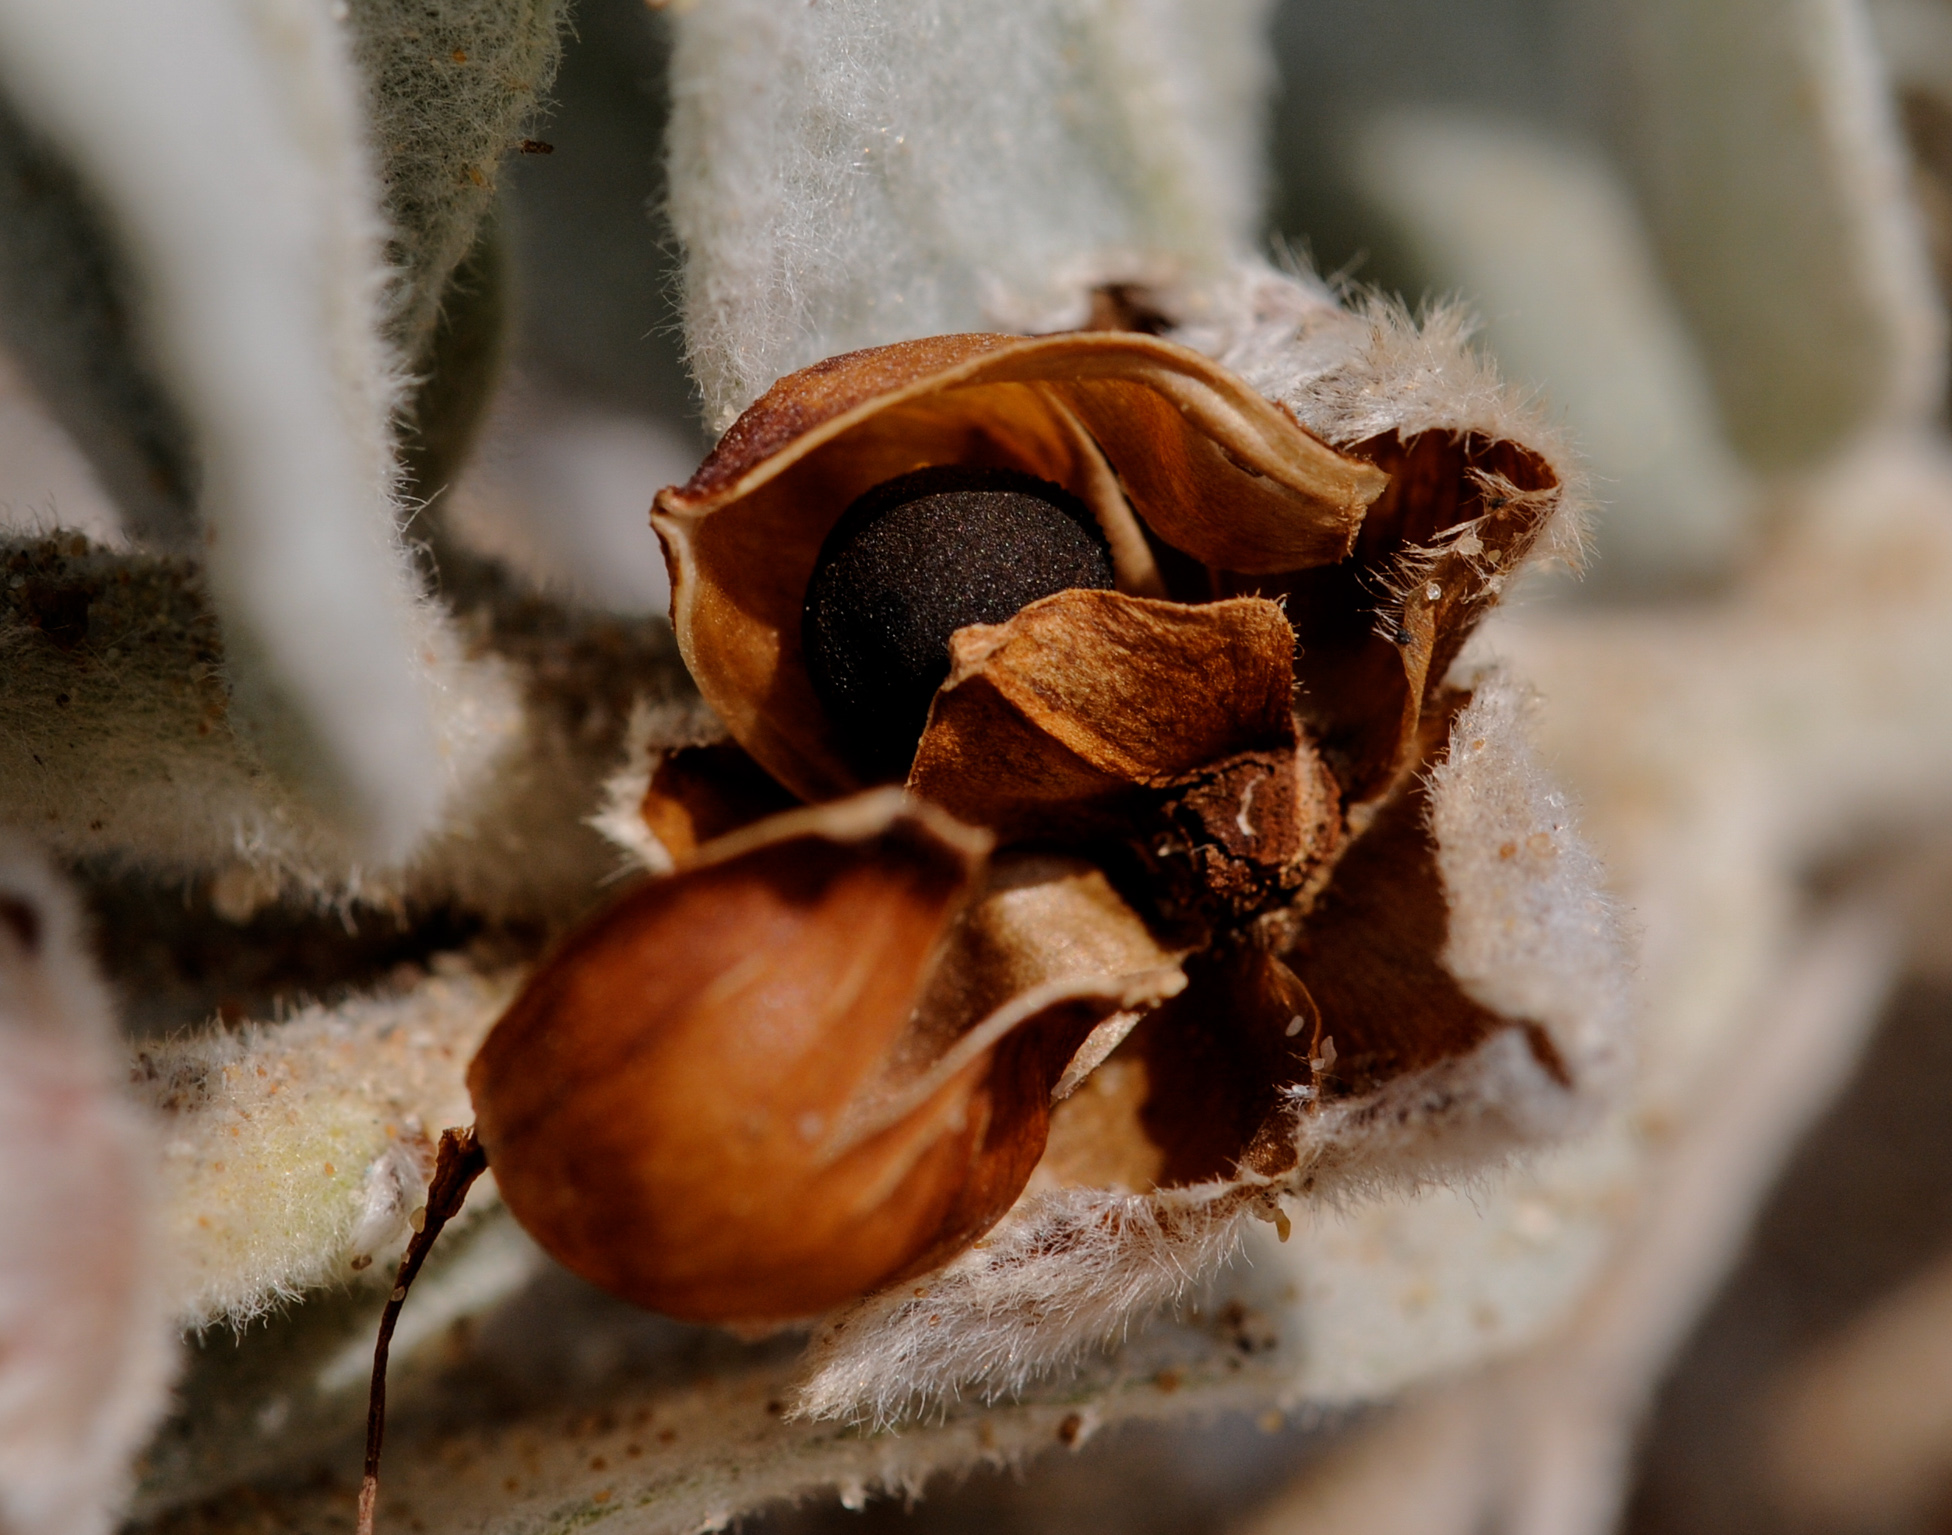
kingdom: Plantae
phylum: Tracheophyta
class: Magnoliopsida
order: Solanales
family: Convolvulaceae
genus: Convolvulus
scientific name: Convolvulus persicus
